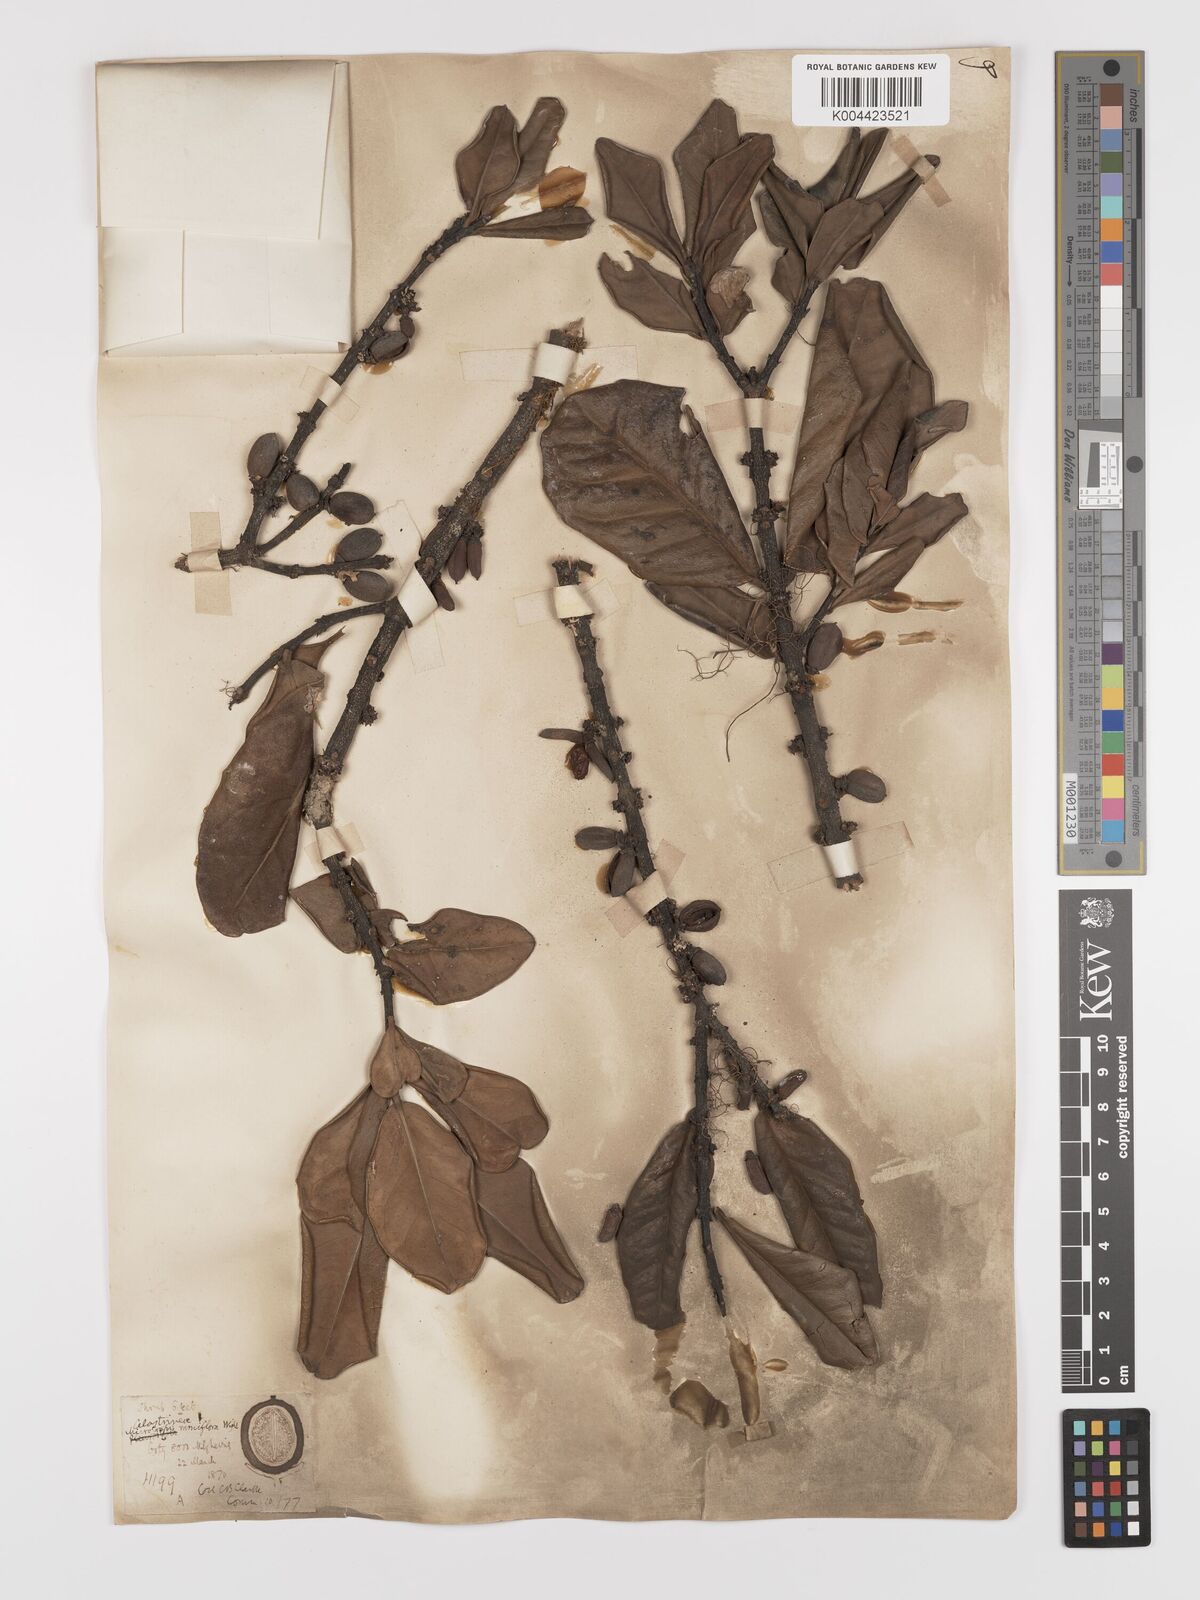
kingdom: Plantae
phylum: Tracheophyta
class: Magnoliopsida
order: Celastrales
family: Celastraceae
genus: Microtropis
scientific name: Microtropis ramiflora
